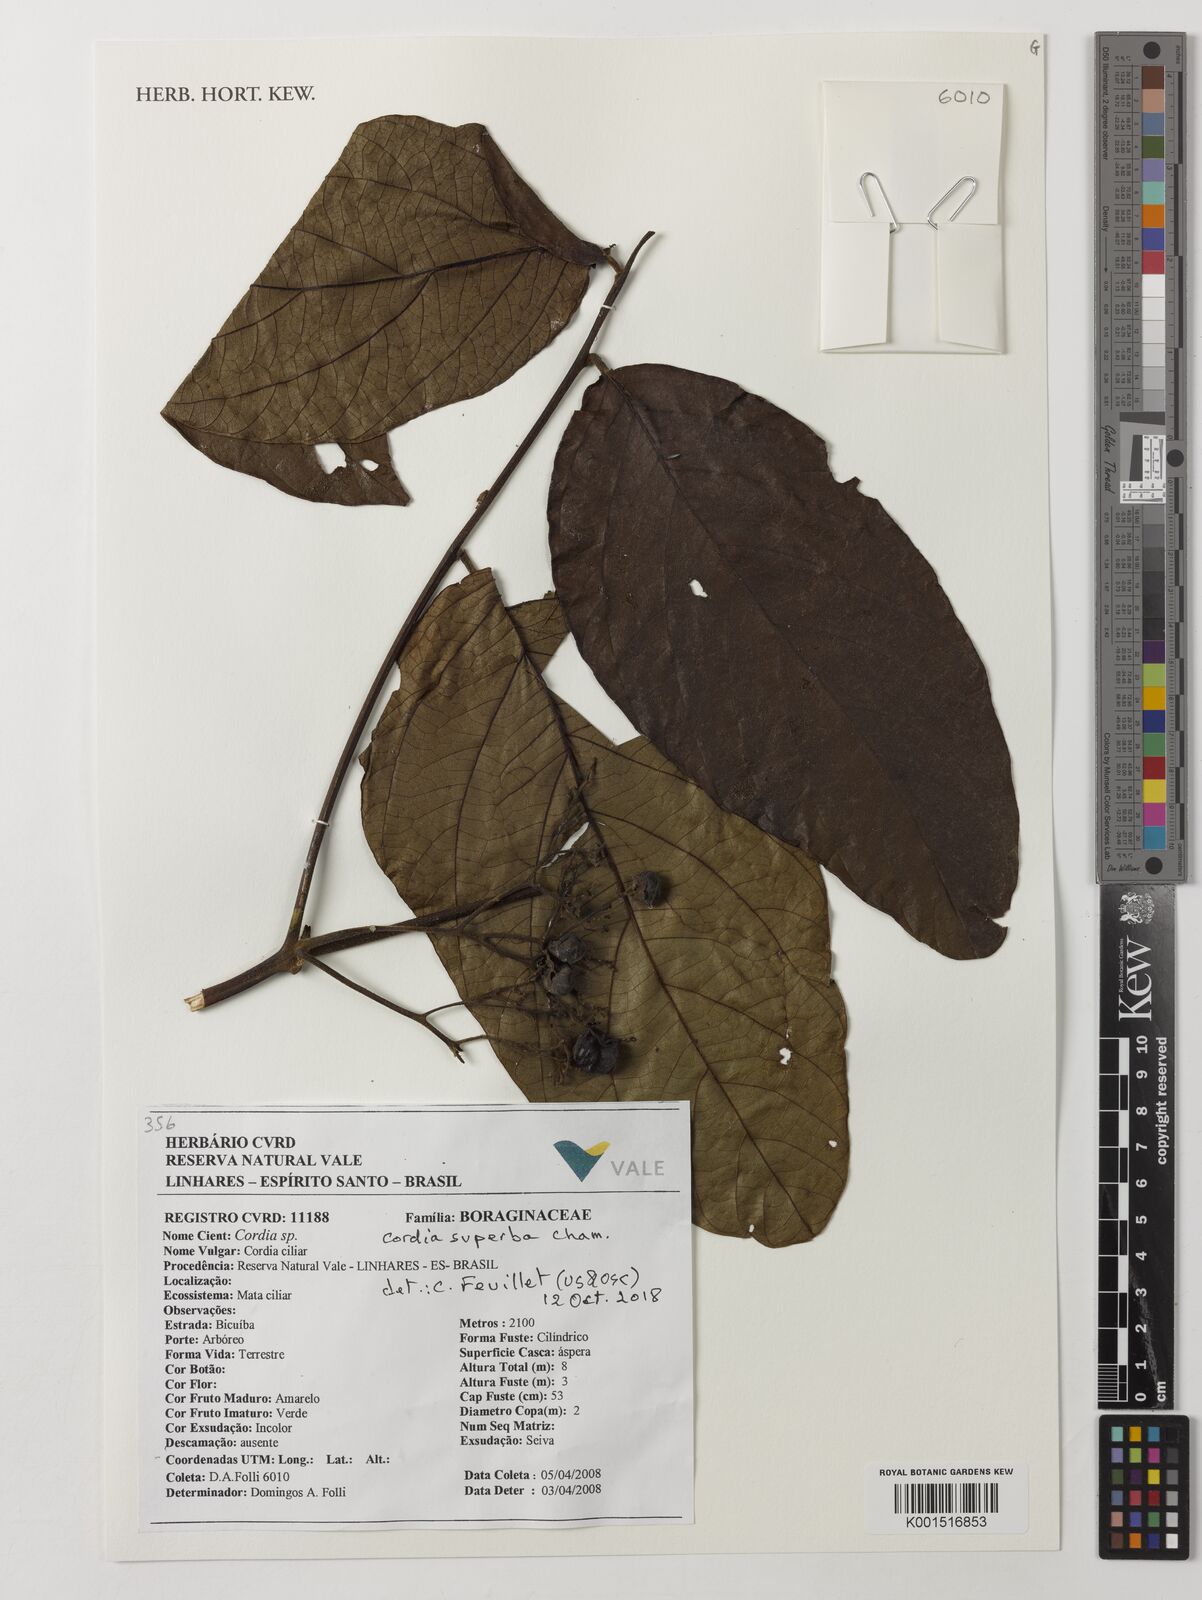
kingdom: Plantae
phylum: Tracheophyta
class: Magnoliopsida
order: Boraginales
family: Cordiaceae
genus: Cordia
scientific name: Cordia superba
